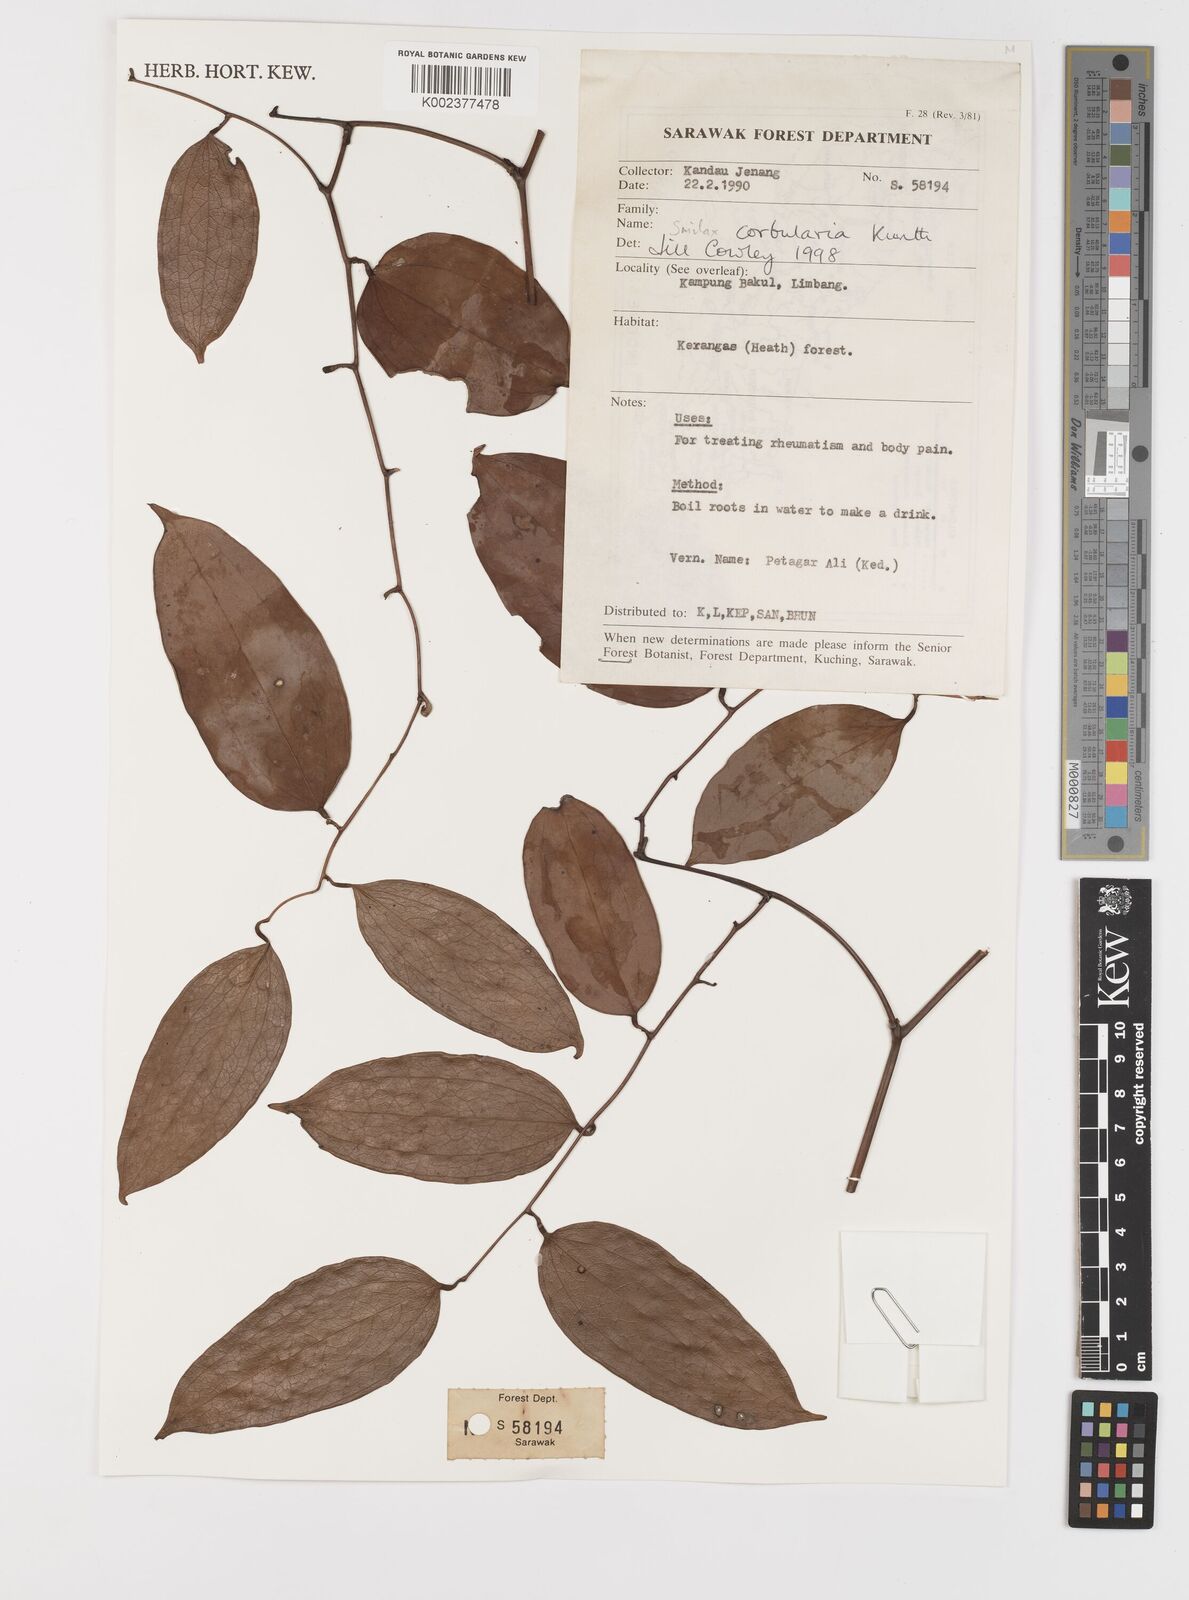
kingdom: Plantae
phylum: Tracheophyta
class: Liliopsida
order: Liliales
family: Smilacaceae
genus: Smilax
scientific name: Smilax corbularia
